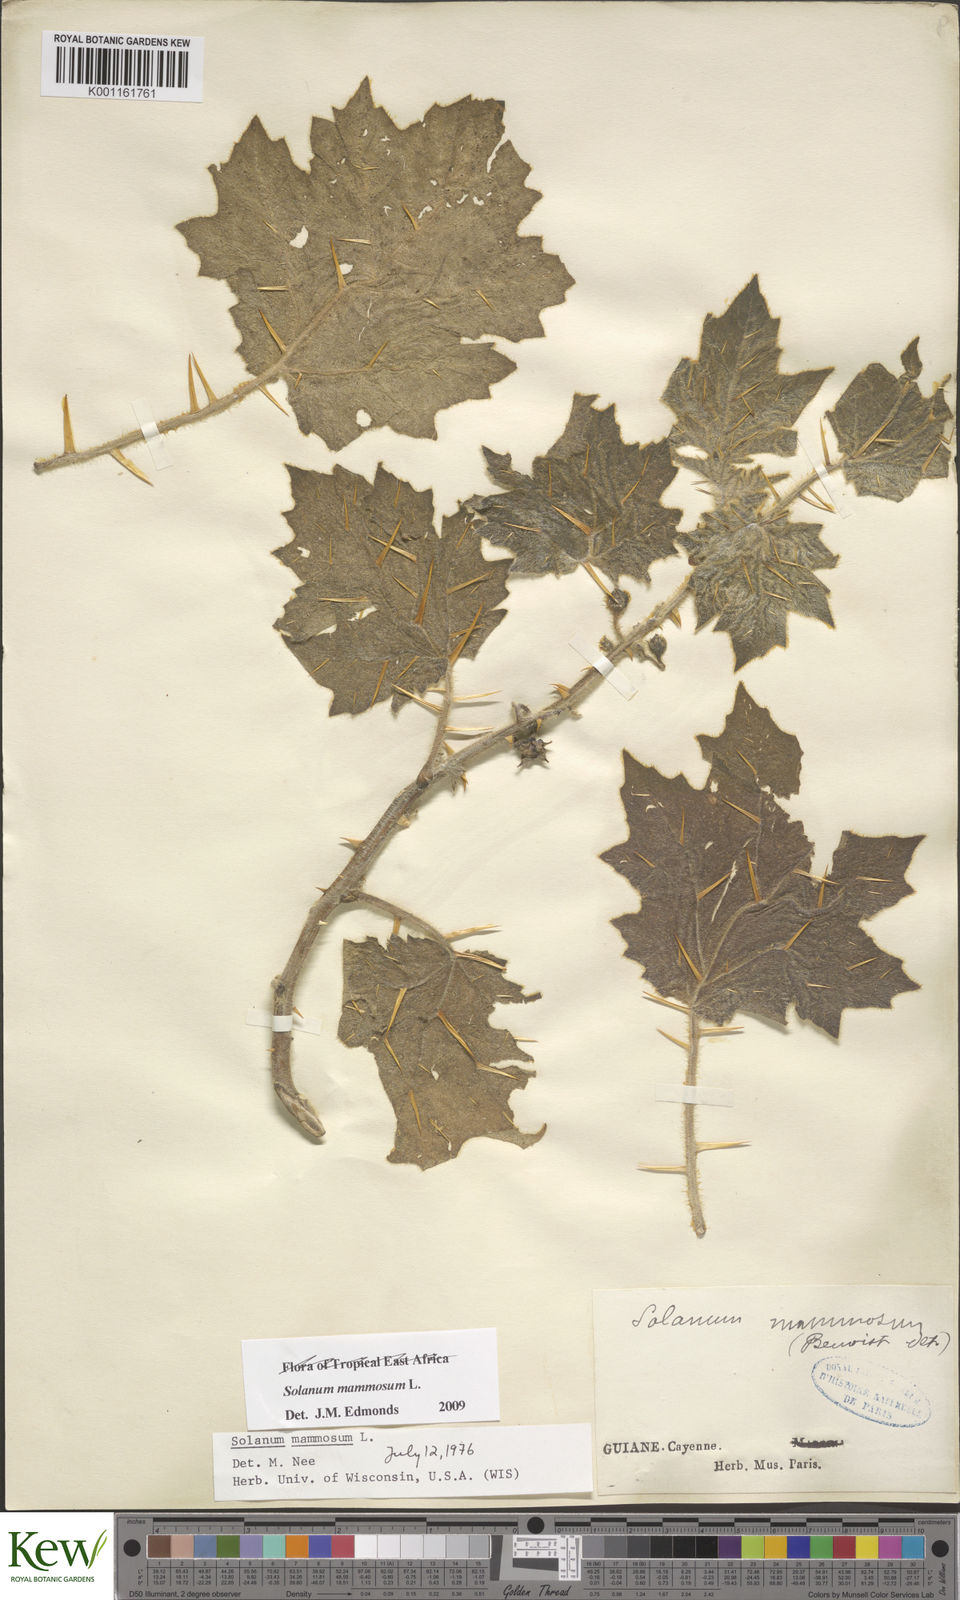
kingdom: Plantae
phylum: Tracheophyta
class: Magnoliopsida
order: Solanales
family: Solanaceae
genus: Solanum
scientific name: Solanum mammosum
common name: Nipple fruit
